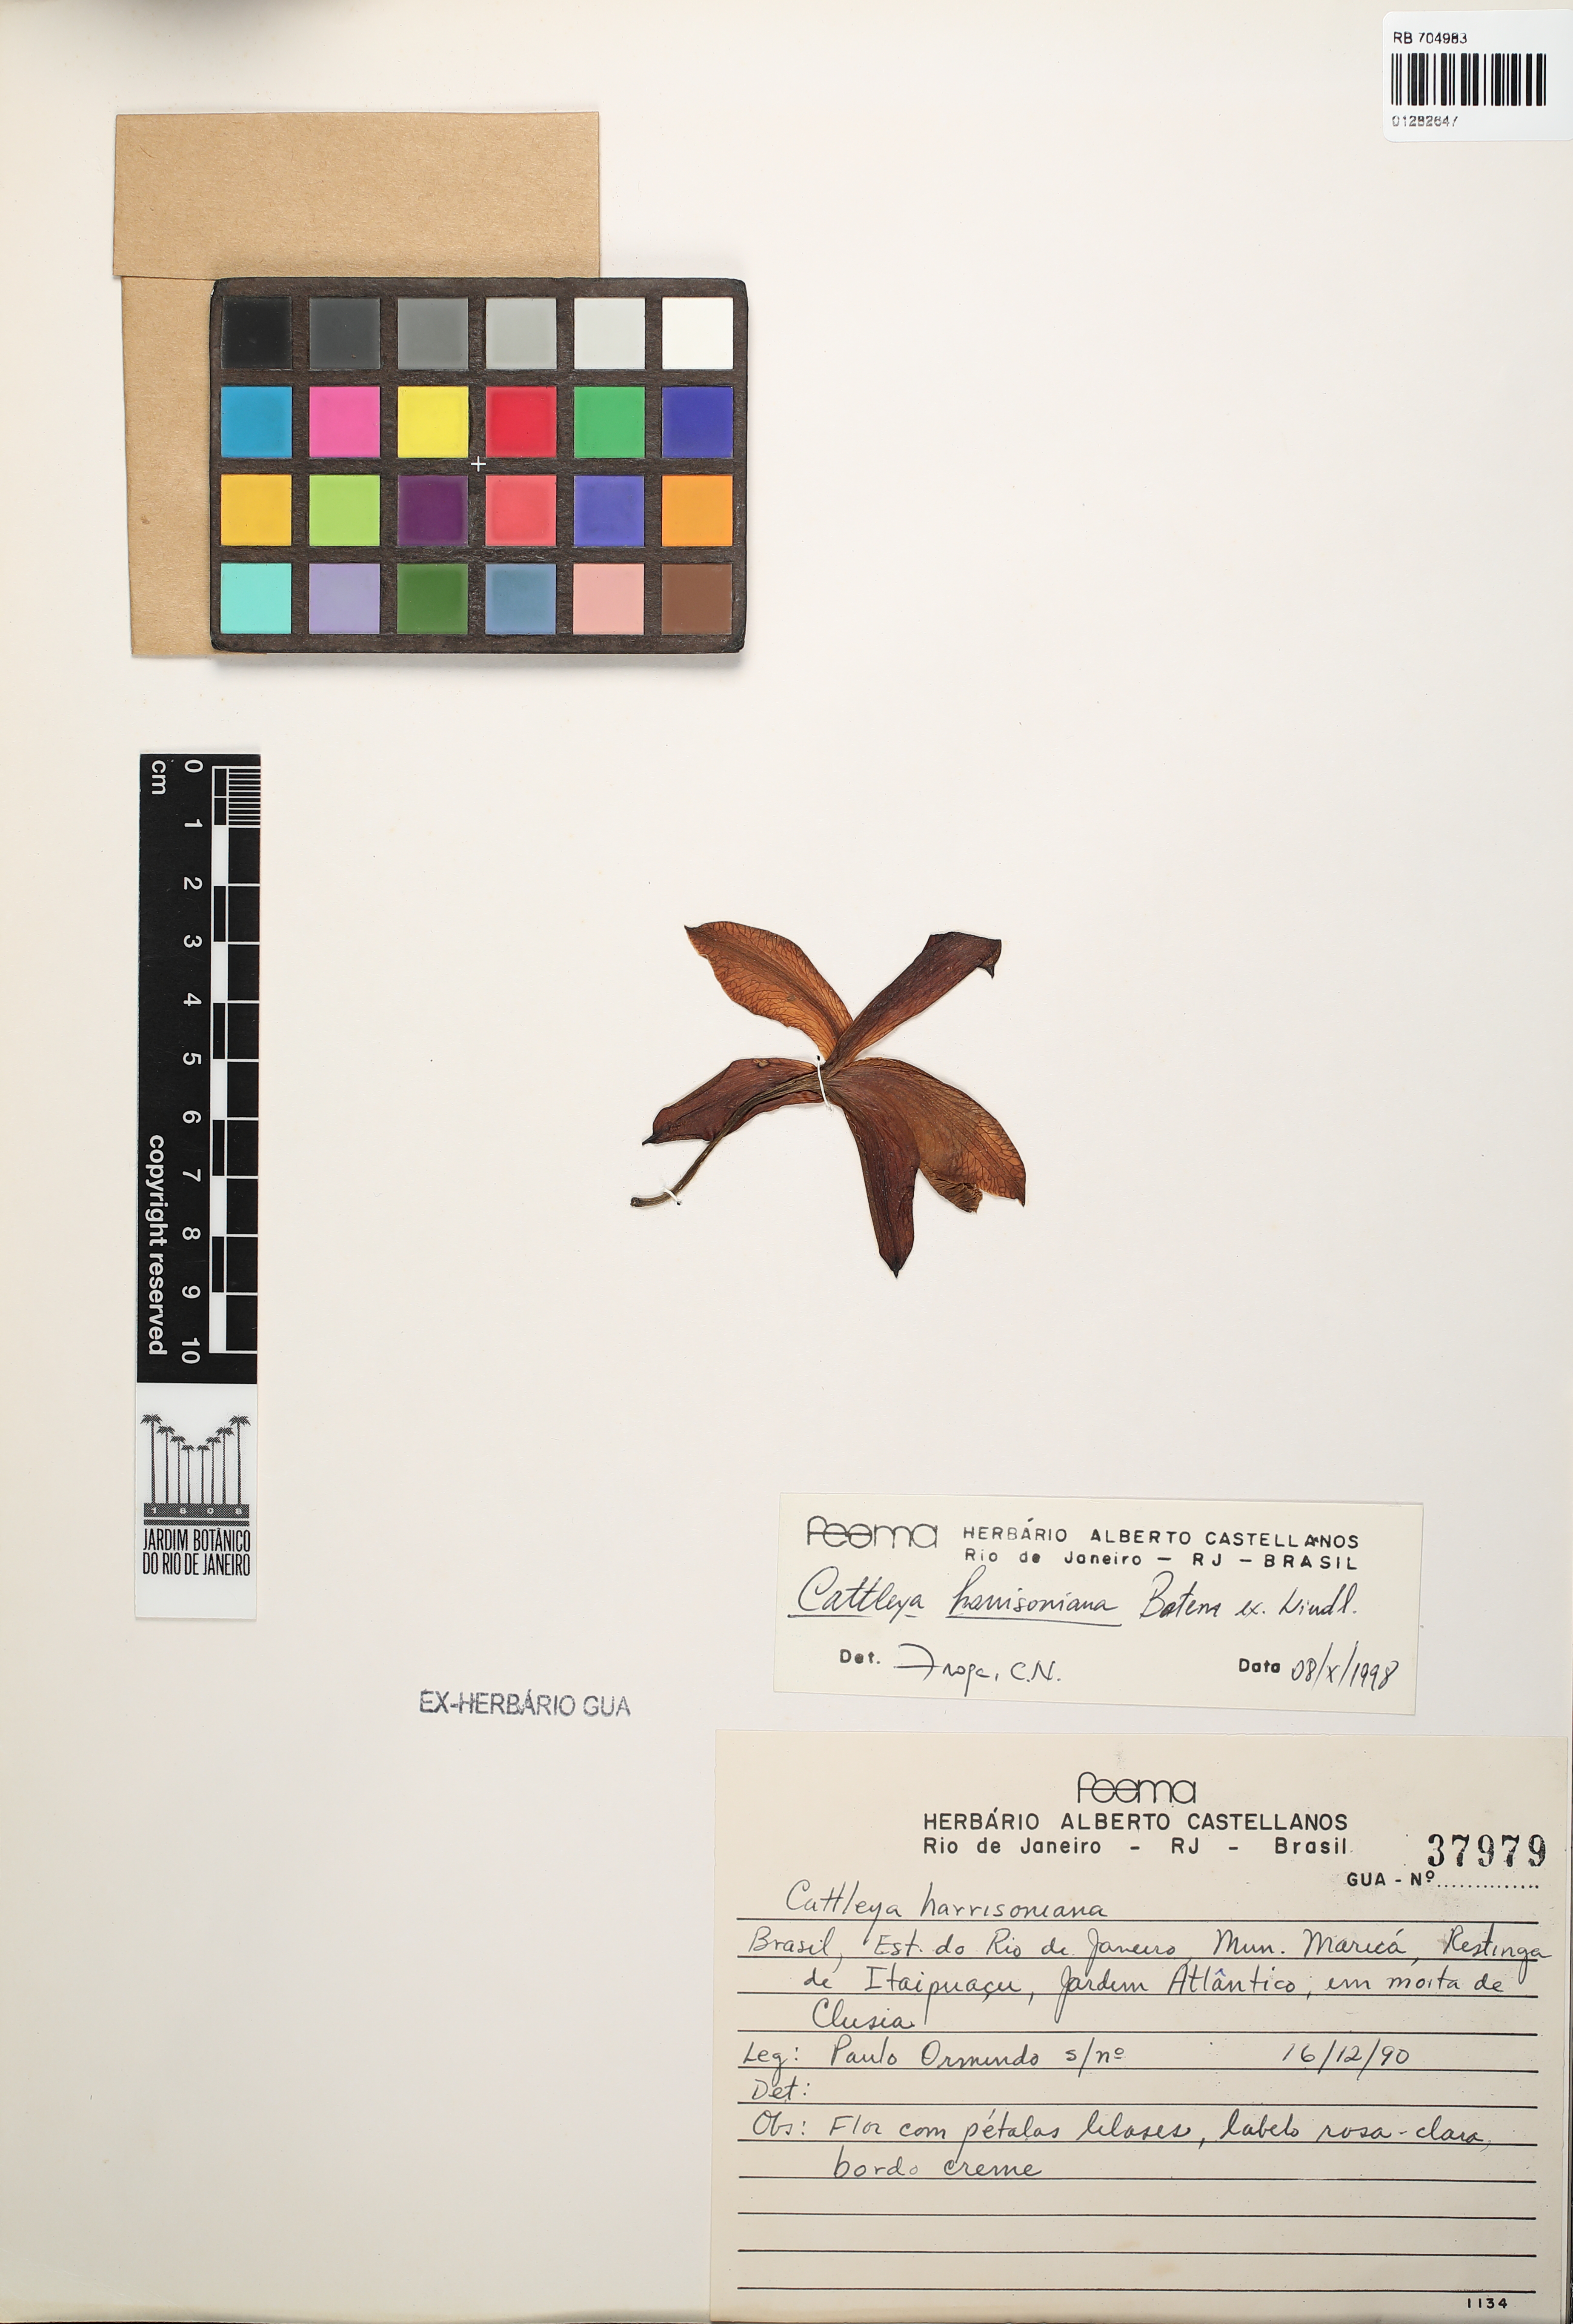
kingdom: Plantae
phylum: Tracheophyta
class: Liliopsida
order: Asparagales
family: Orchidaceae
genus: Cattleya
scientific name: Cattleya harrisoniana
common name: Harrison's cattleya
